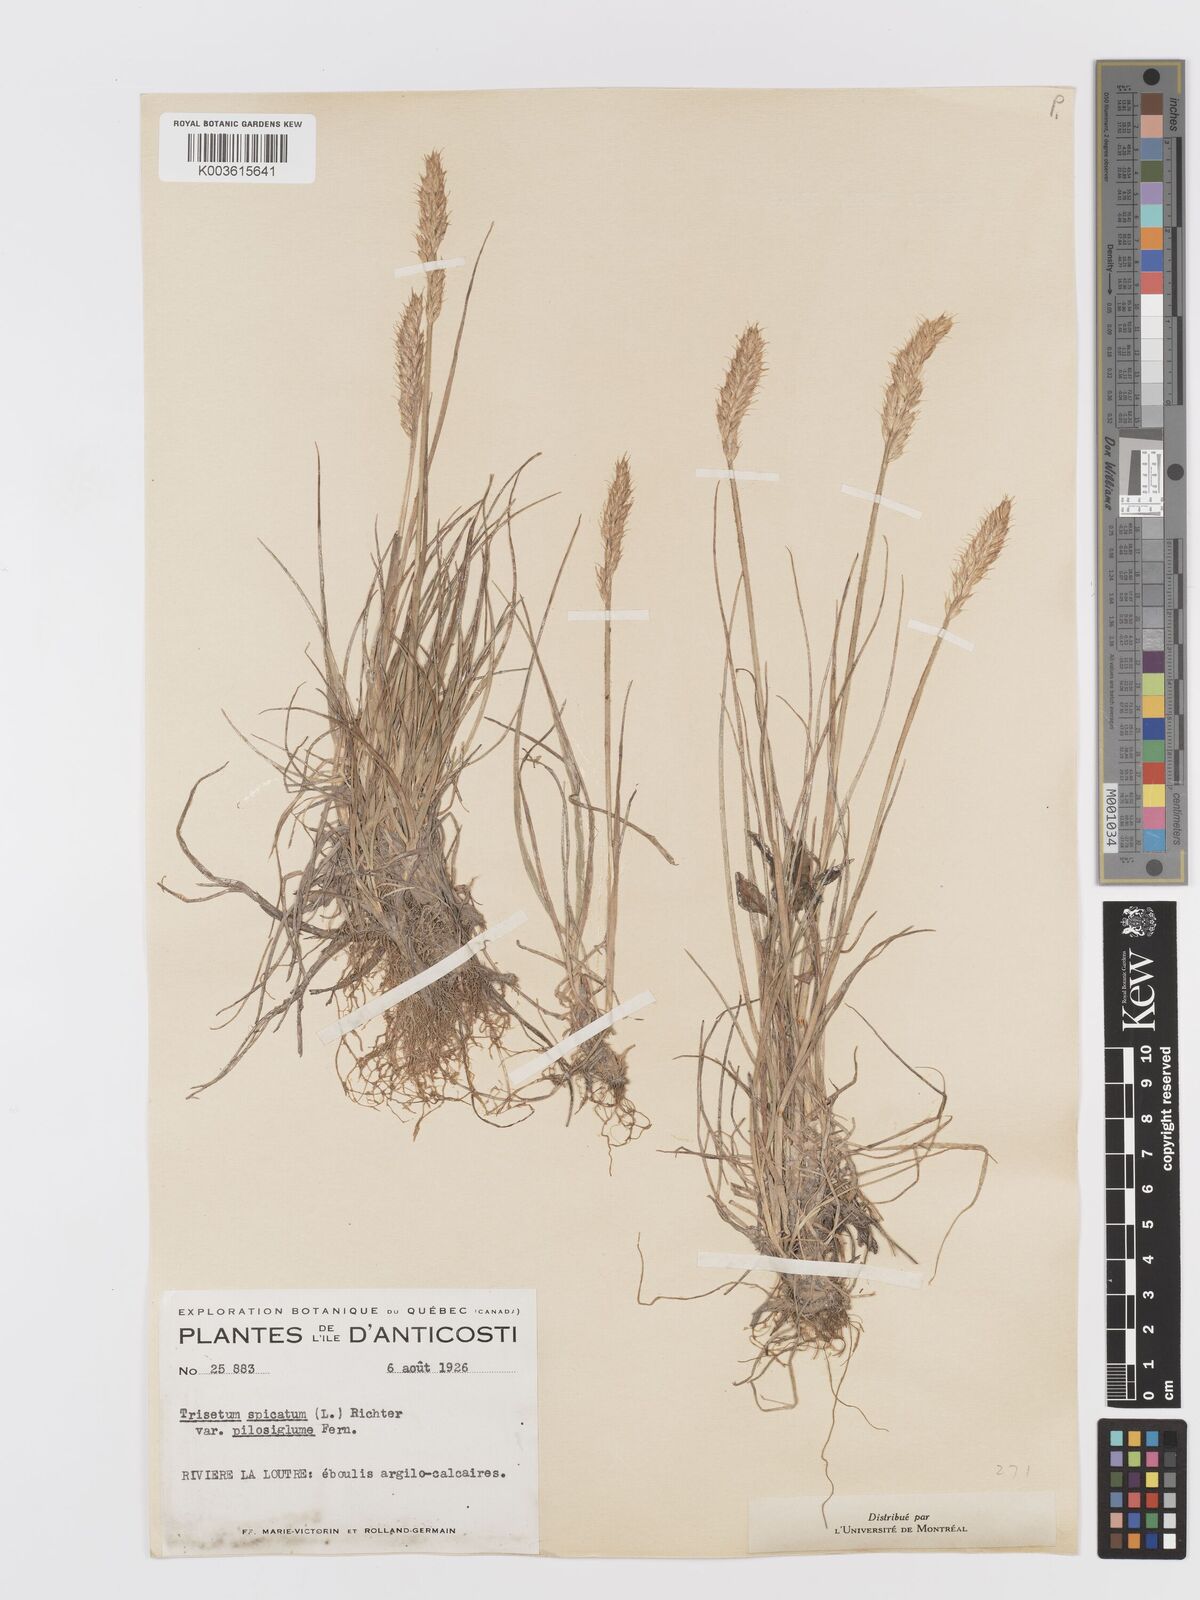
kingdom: Plantae
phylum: Tracheophyta
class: Liliopsida
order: Poales
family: Poaceae
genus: Koeleria
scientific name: Koeleria spicata
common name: Mountain trisetum
